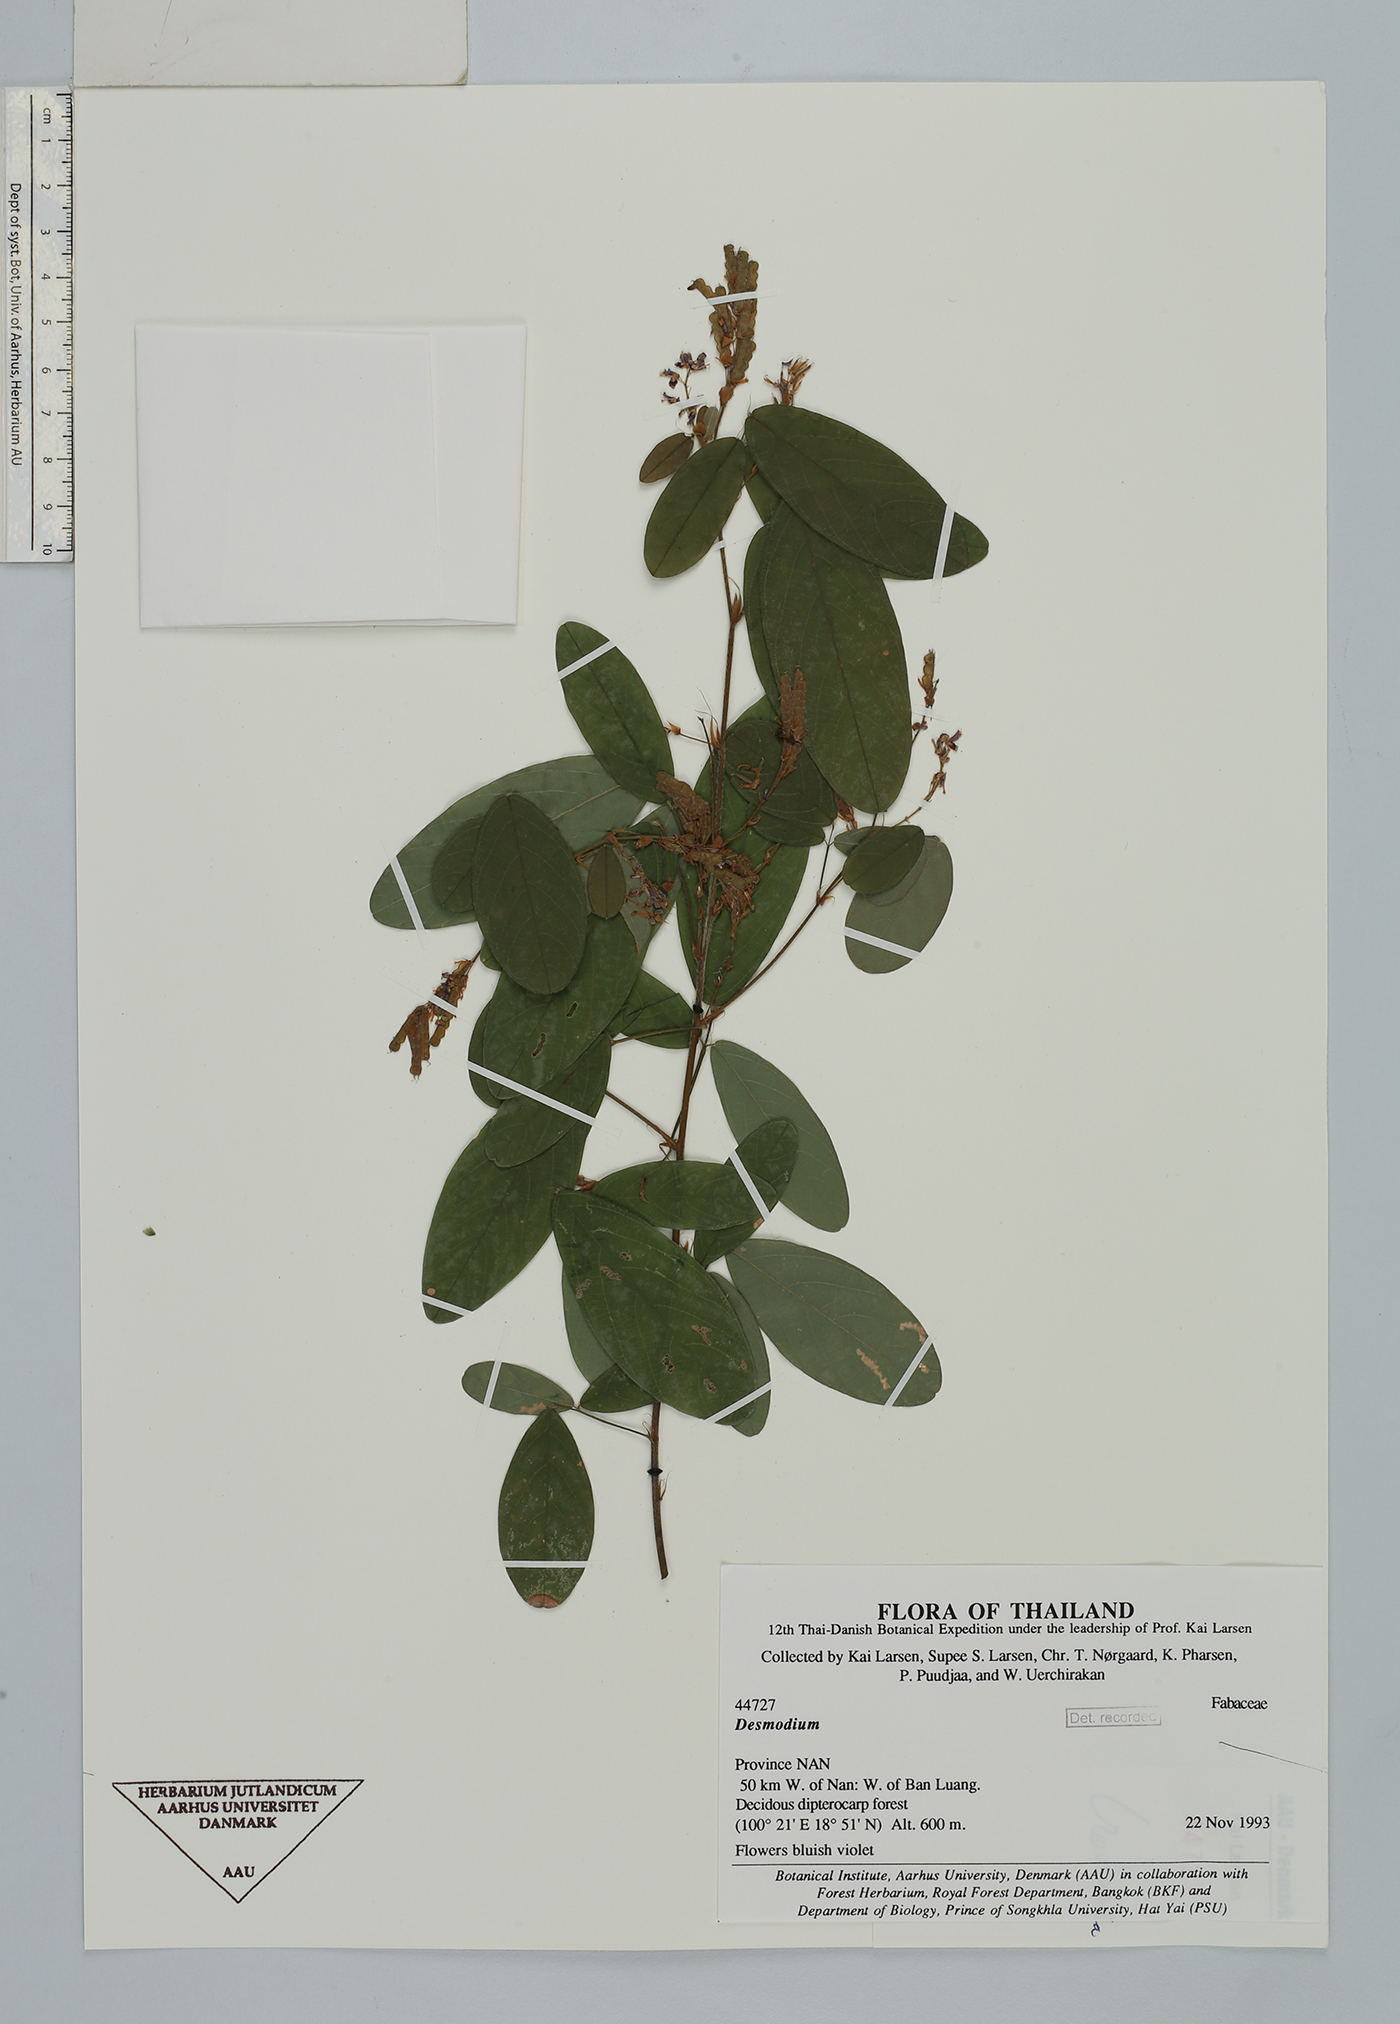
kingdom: Plantae
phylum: Tracheophyta
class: Magnoliopsida
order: Fabales
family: Fabaceae
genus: Grona
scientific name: Grona heterocarpos
